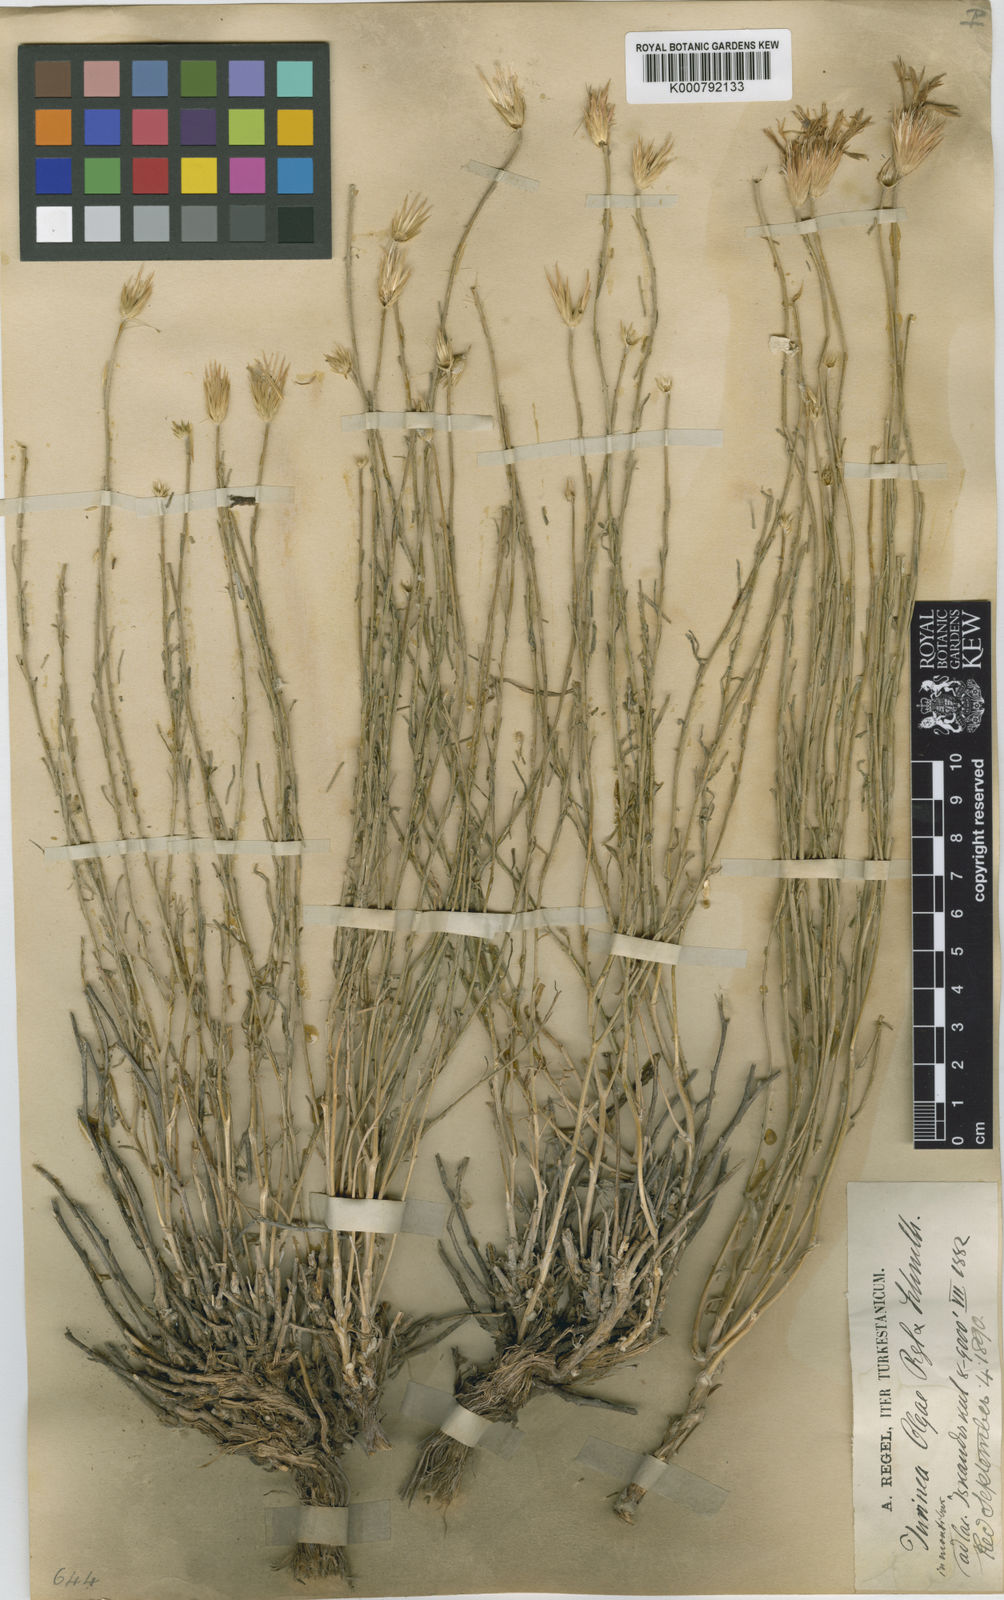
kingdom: Plantae
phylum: Tracheophyta
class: Magnoliopsida
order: Asterales
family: Asteraceae
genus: Jurinea
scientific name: Jurinea olgae
